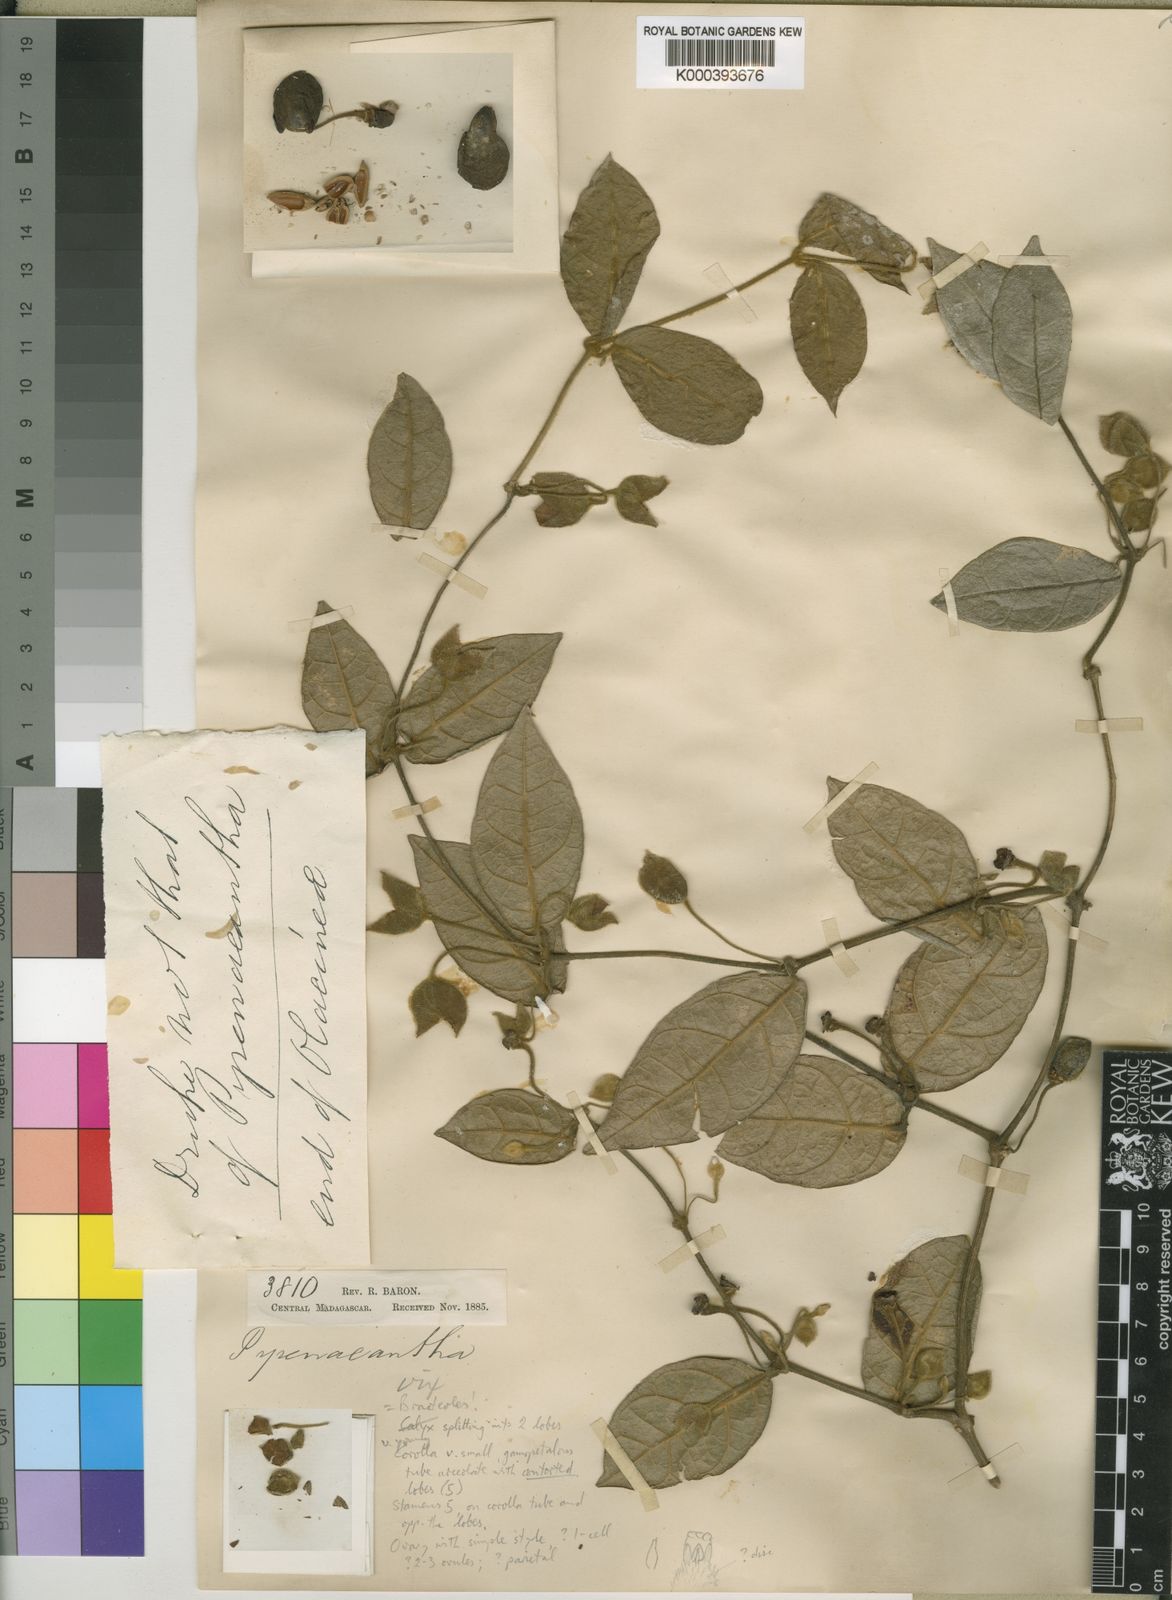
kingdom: Plantae
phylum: Tracheophyta
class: Magnoliopsida
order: Lamiales
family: Acanthaceae
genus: Mendoncia
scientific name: Mendoncia cowanii
